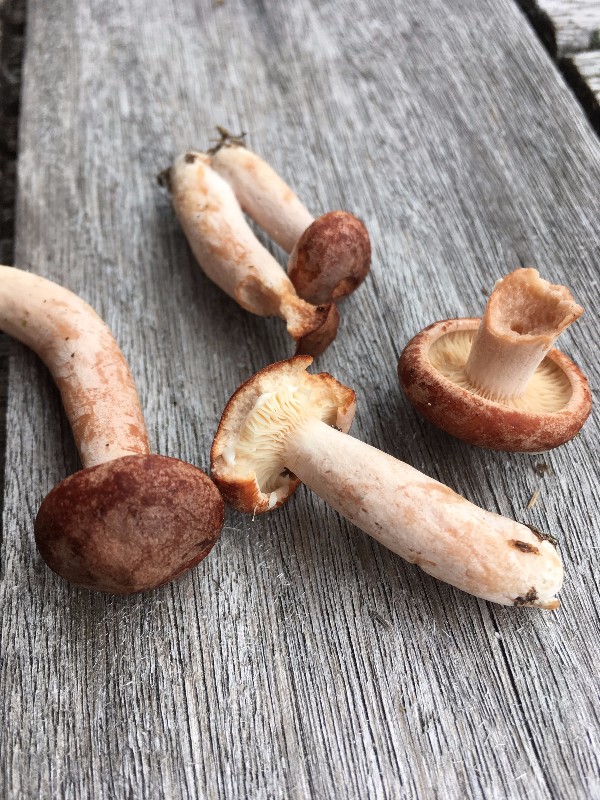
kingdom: Fungi
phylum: Basidiomycota
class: Agaricomycetes
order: Russulales
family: Russulaceae
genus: Lactarius
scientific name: Lactarius rufus
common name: rødbrun mælkehat
